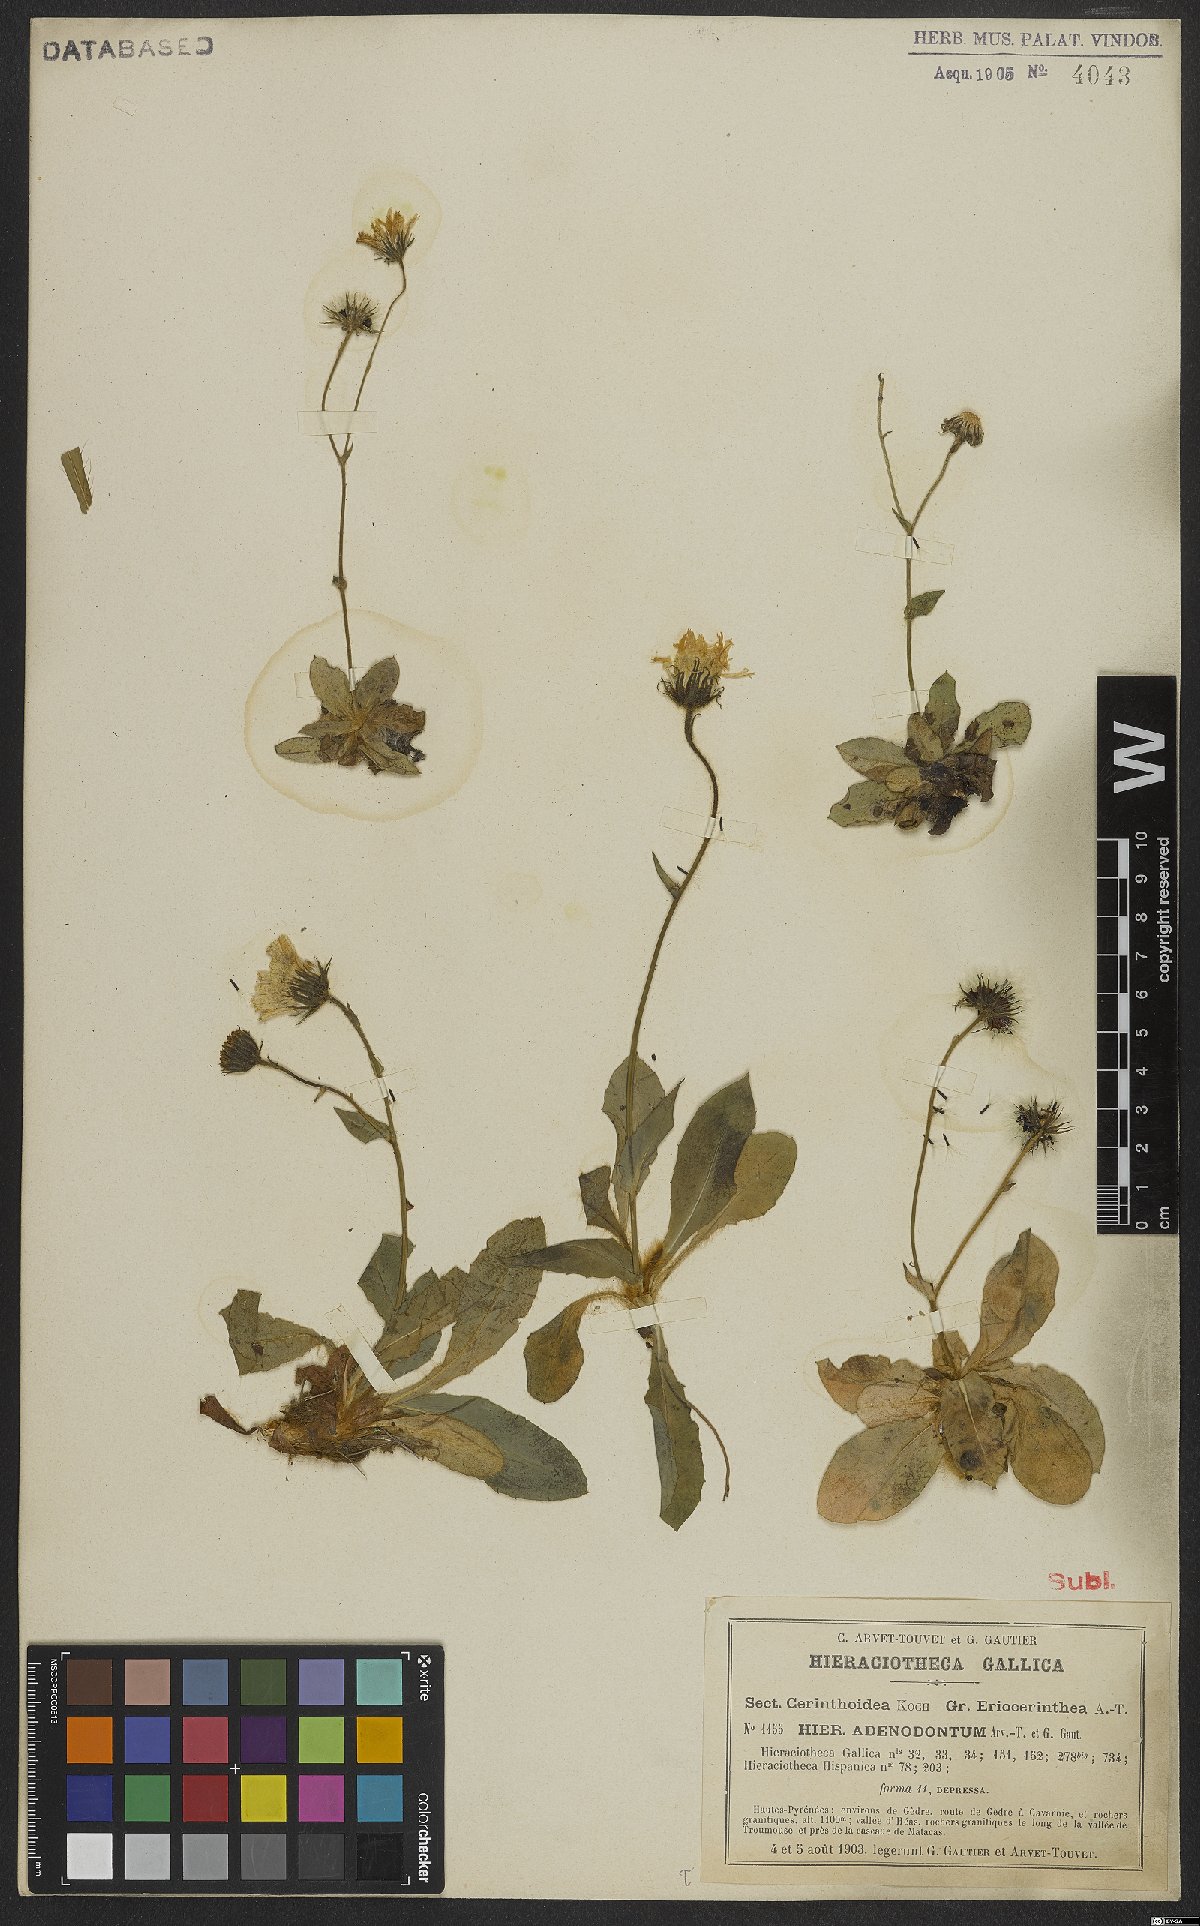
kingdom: Plantae
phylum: Tracheophyta
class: Magnoliopsida
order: Asterales
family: Asteraceae
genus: Hieracium
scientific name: Hieracium adenodontum
